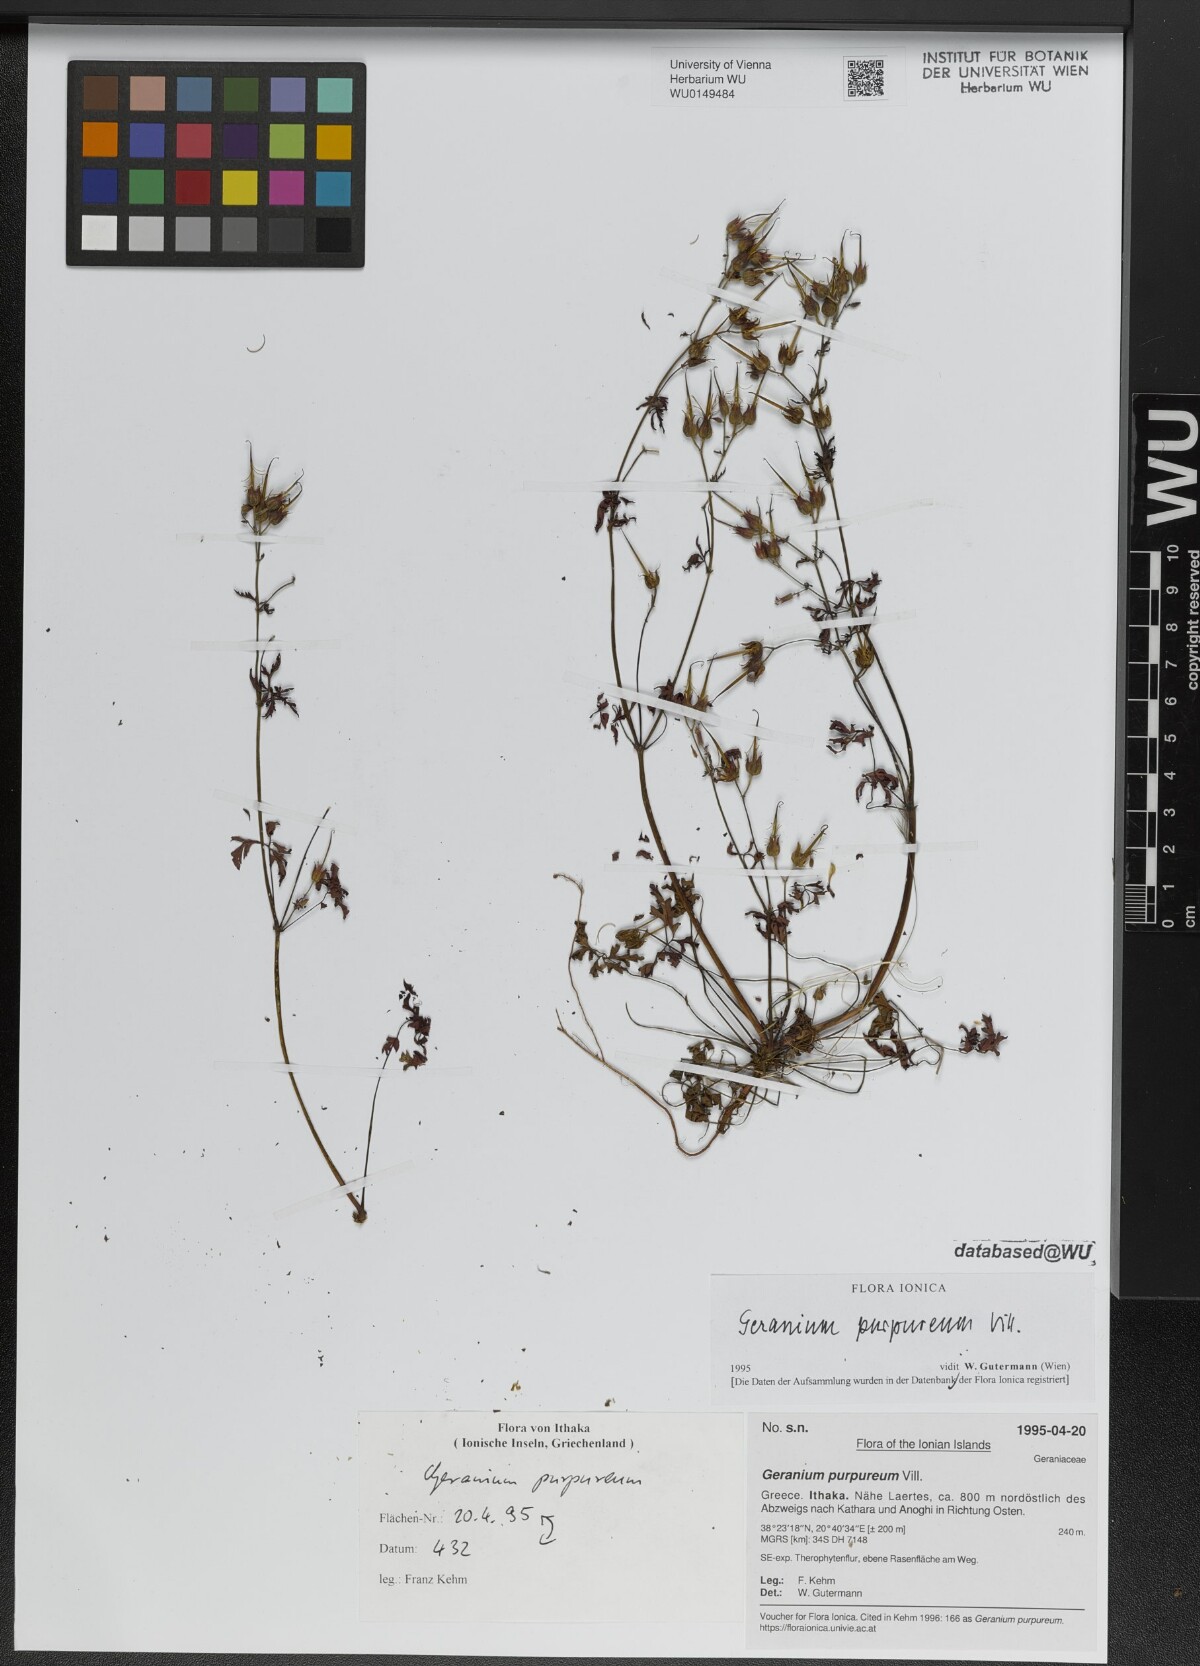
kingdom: Plantae
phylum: Tracheophyta
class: Magnoliopsida
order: Geraniales
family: Geraniaceae
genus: Geranium
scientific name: Geranium purpureum
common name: Little-robin
